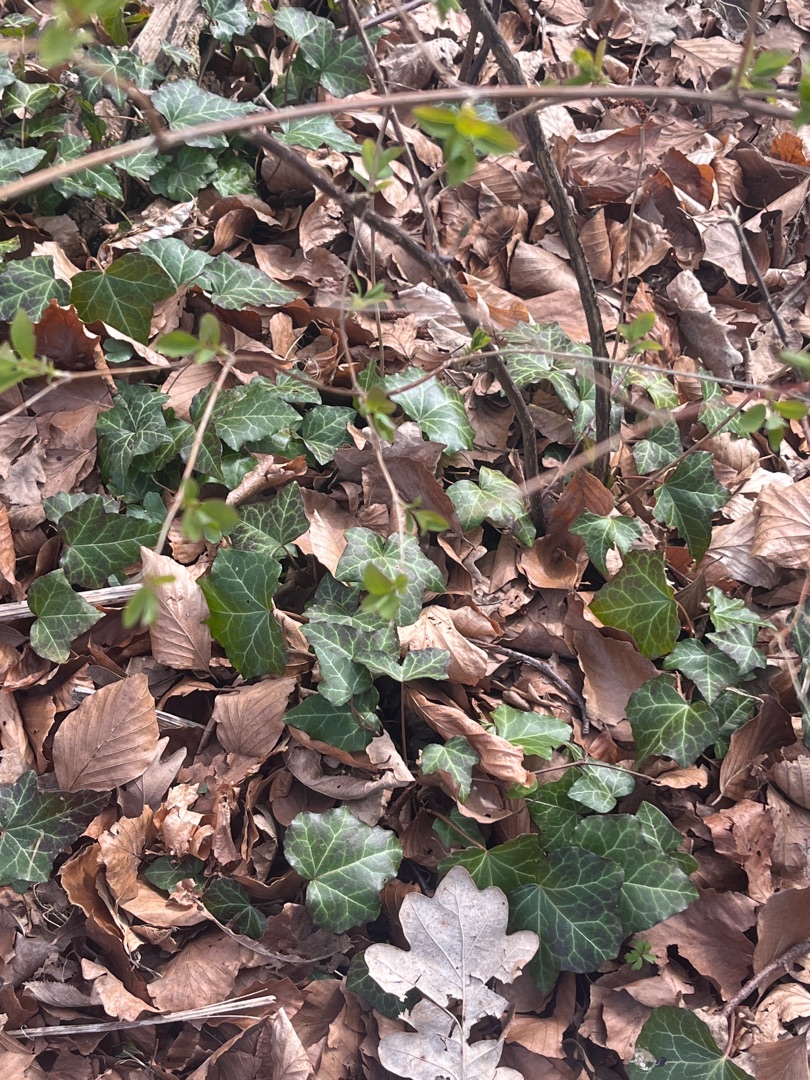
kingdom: Plantae
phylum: Tracheophyta
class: Magnoliopsida
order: Apiales
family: Araliaceae
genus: Hedera
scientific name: Hedera helix
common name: Vedbend
